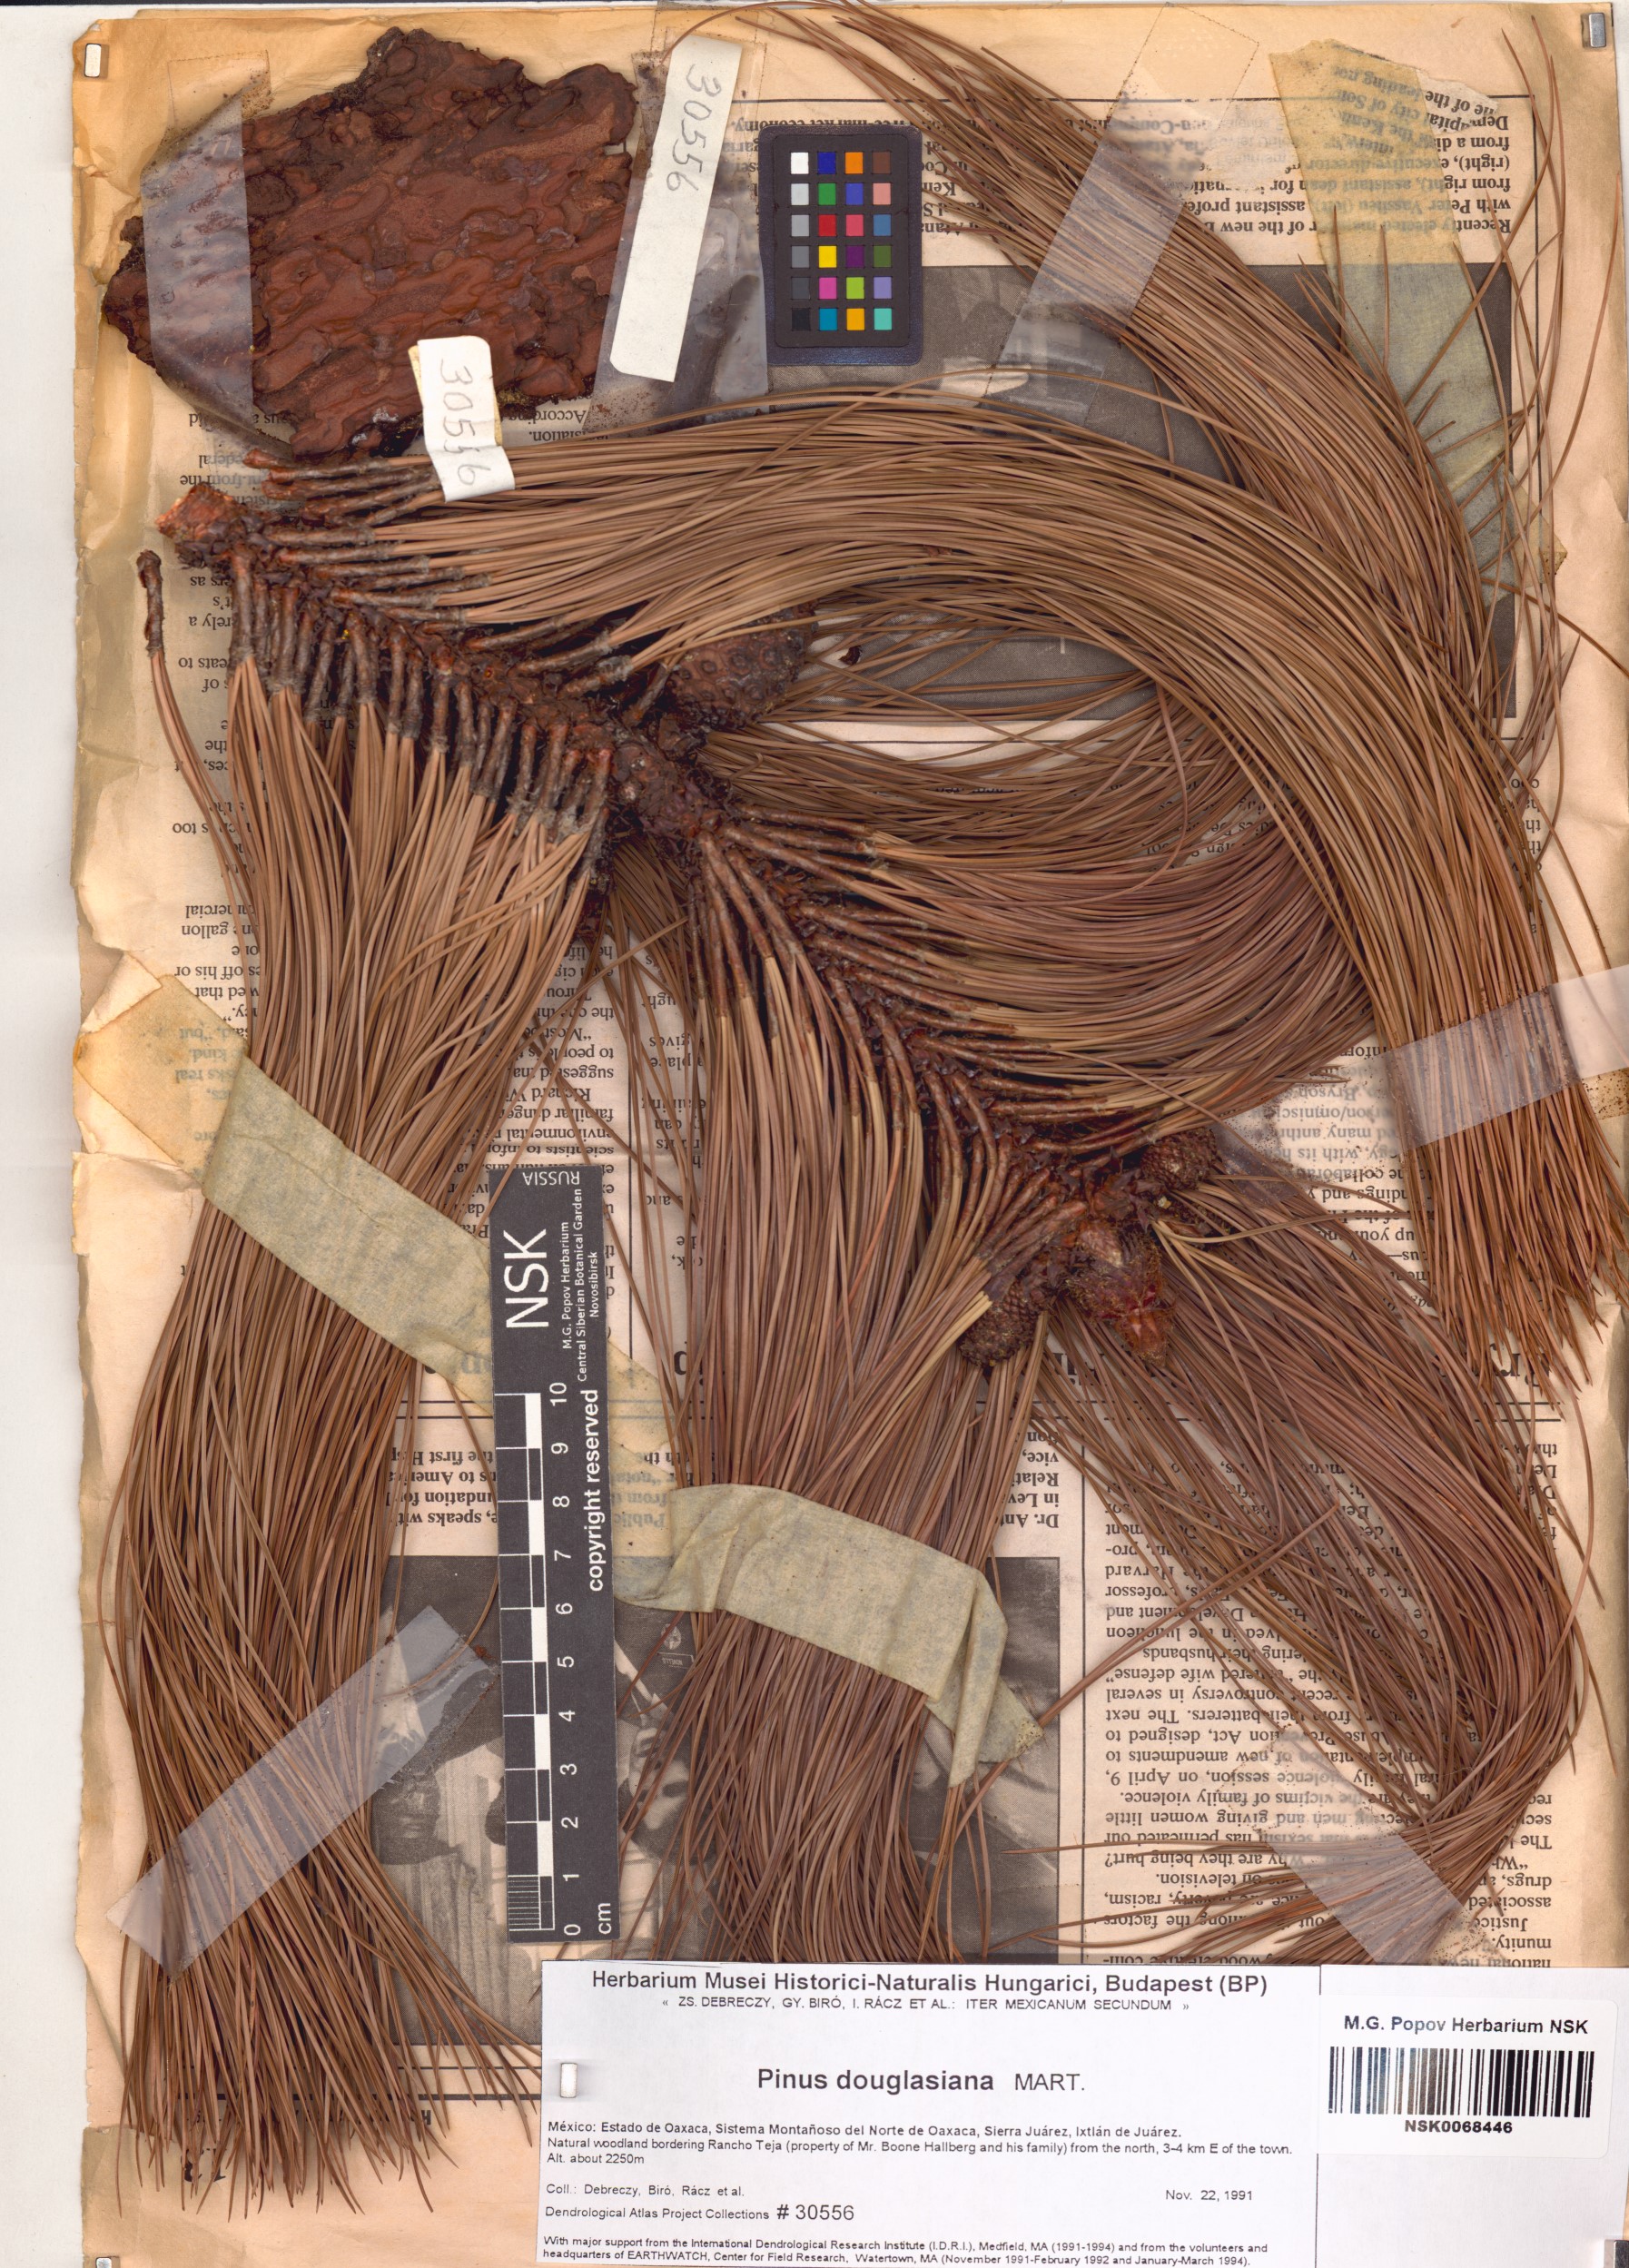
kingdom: Plantae
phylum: Tracheophyta
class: Pinopsida
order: Pinales
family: Pinaceae
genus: Pinus
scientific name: Pinus douglasiana
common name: Douglas pine
